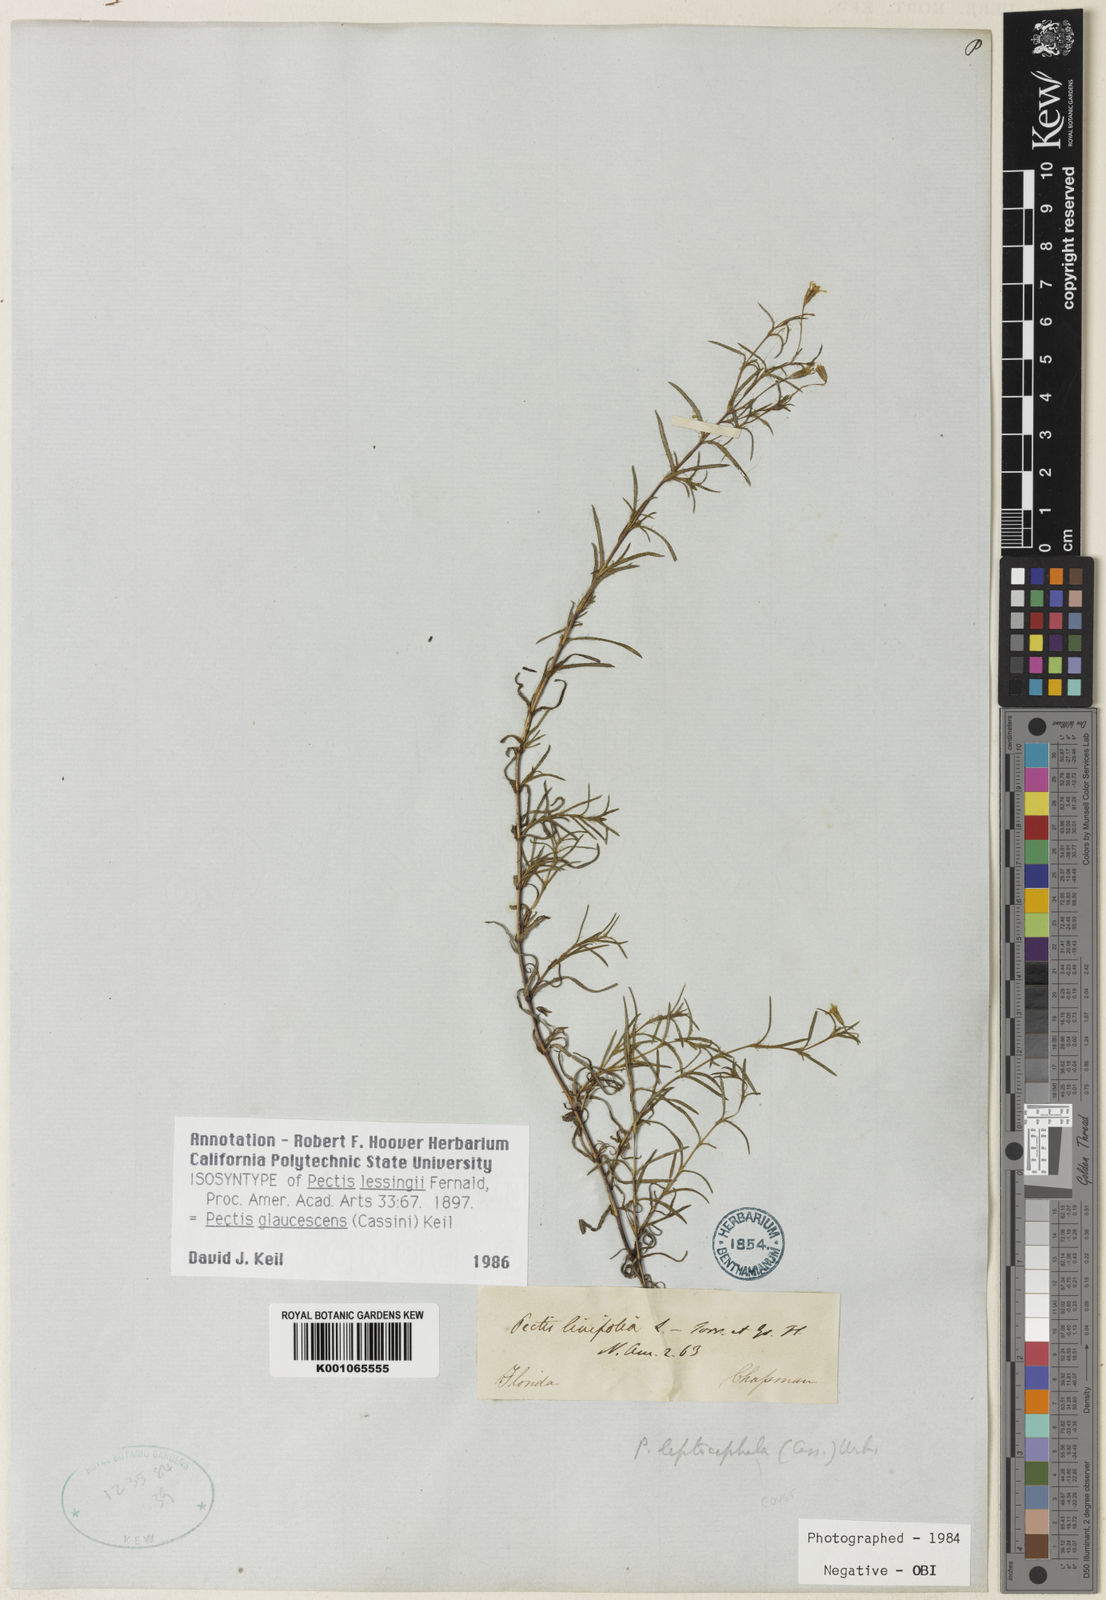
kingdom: Plantae
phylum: Tracheophyta
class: Magnoliopsida
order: Asterales
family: Asteraceae
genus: Pectis
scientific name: Pectis glaucescens
